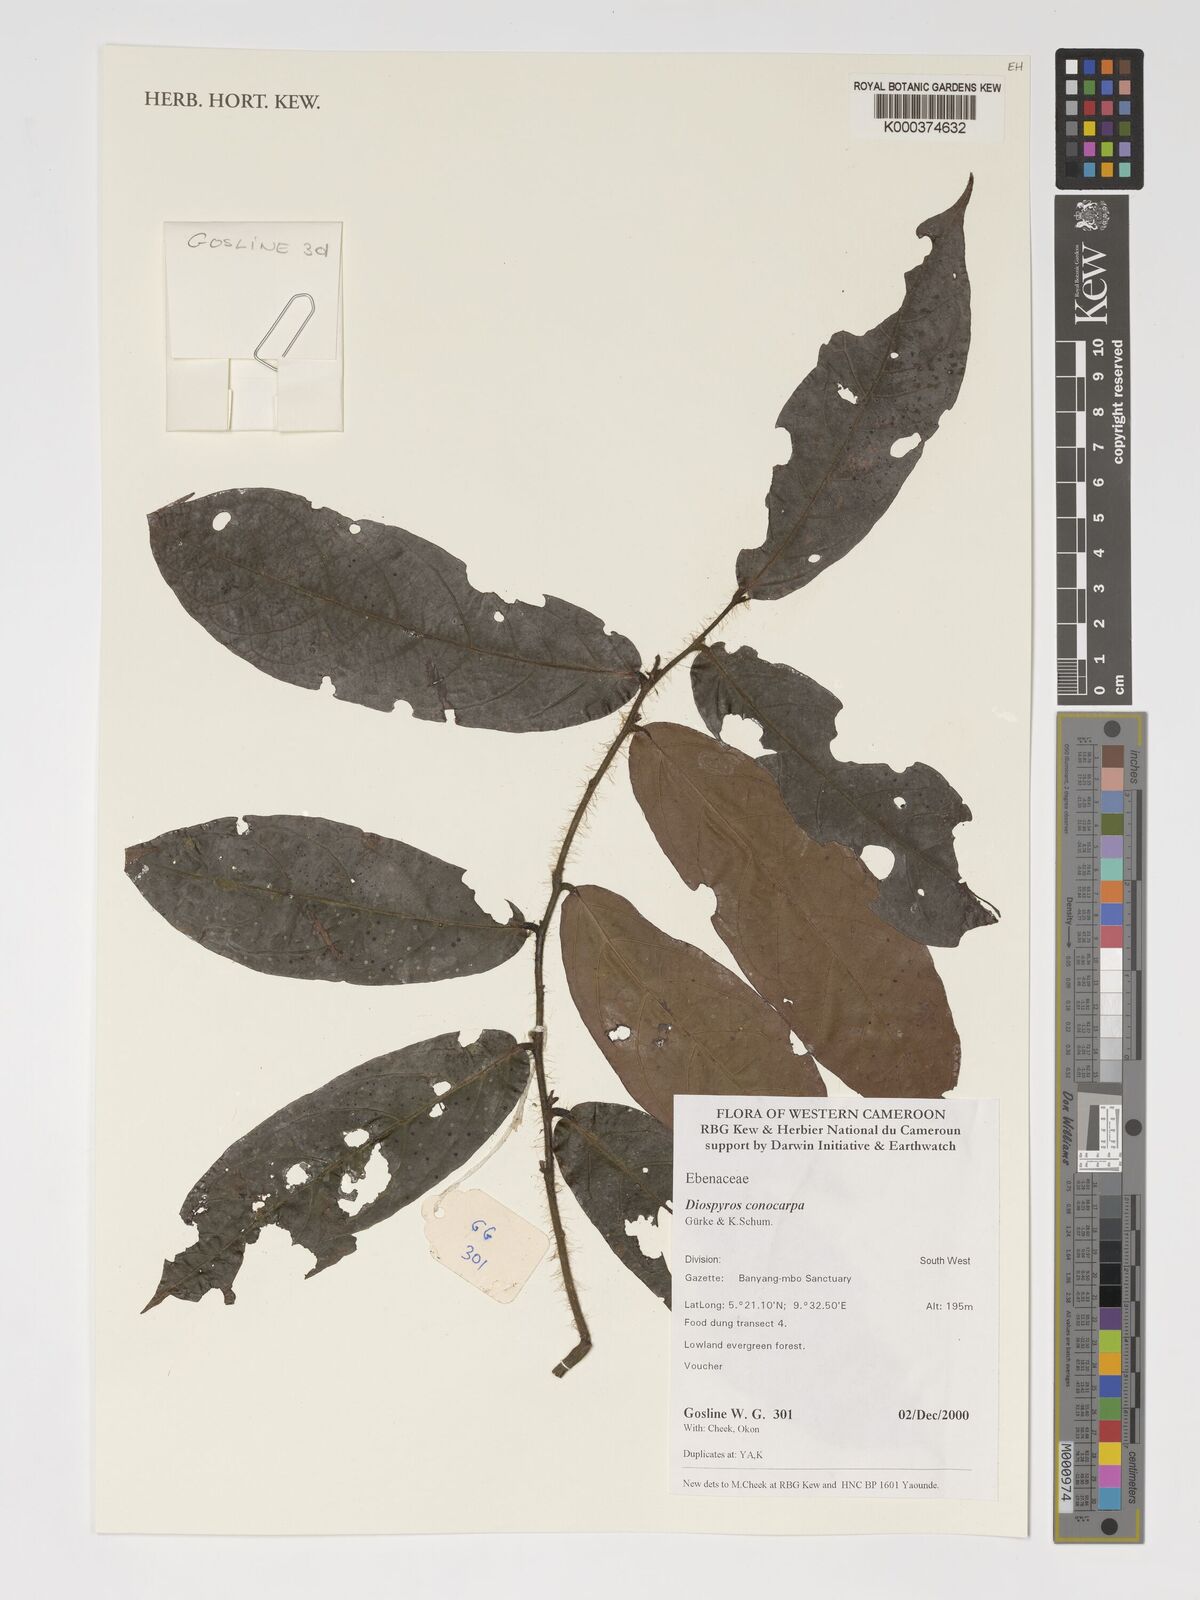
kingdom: Plantae
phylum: Tracheophyta
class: Magnoliopsida
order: Ericales
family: Ebenaceae
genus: Diospyros
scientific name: Diospyros conocarpa
